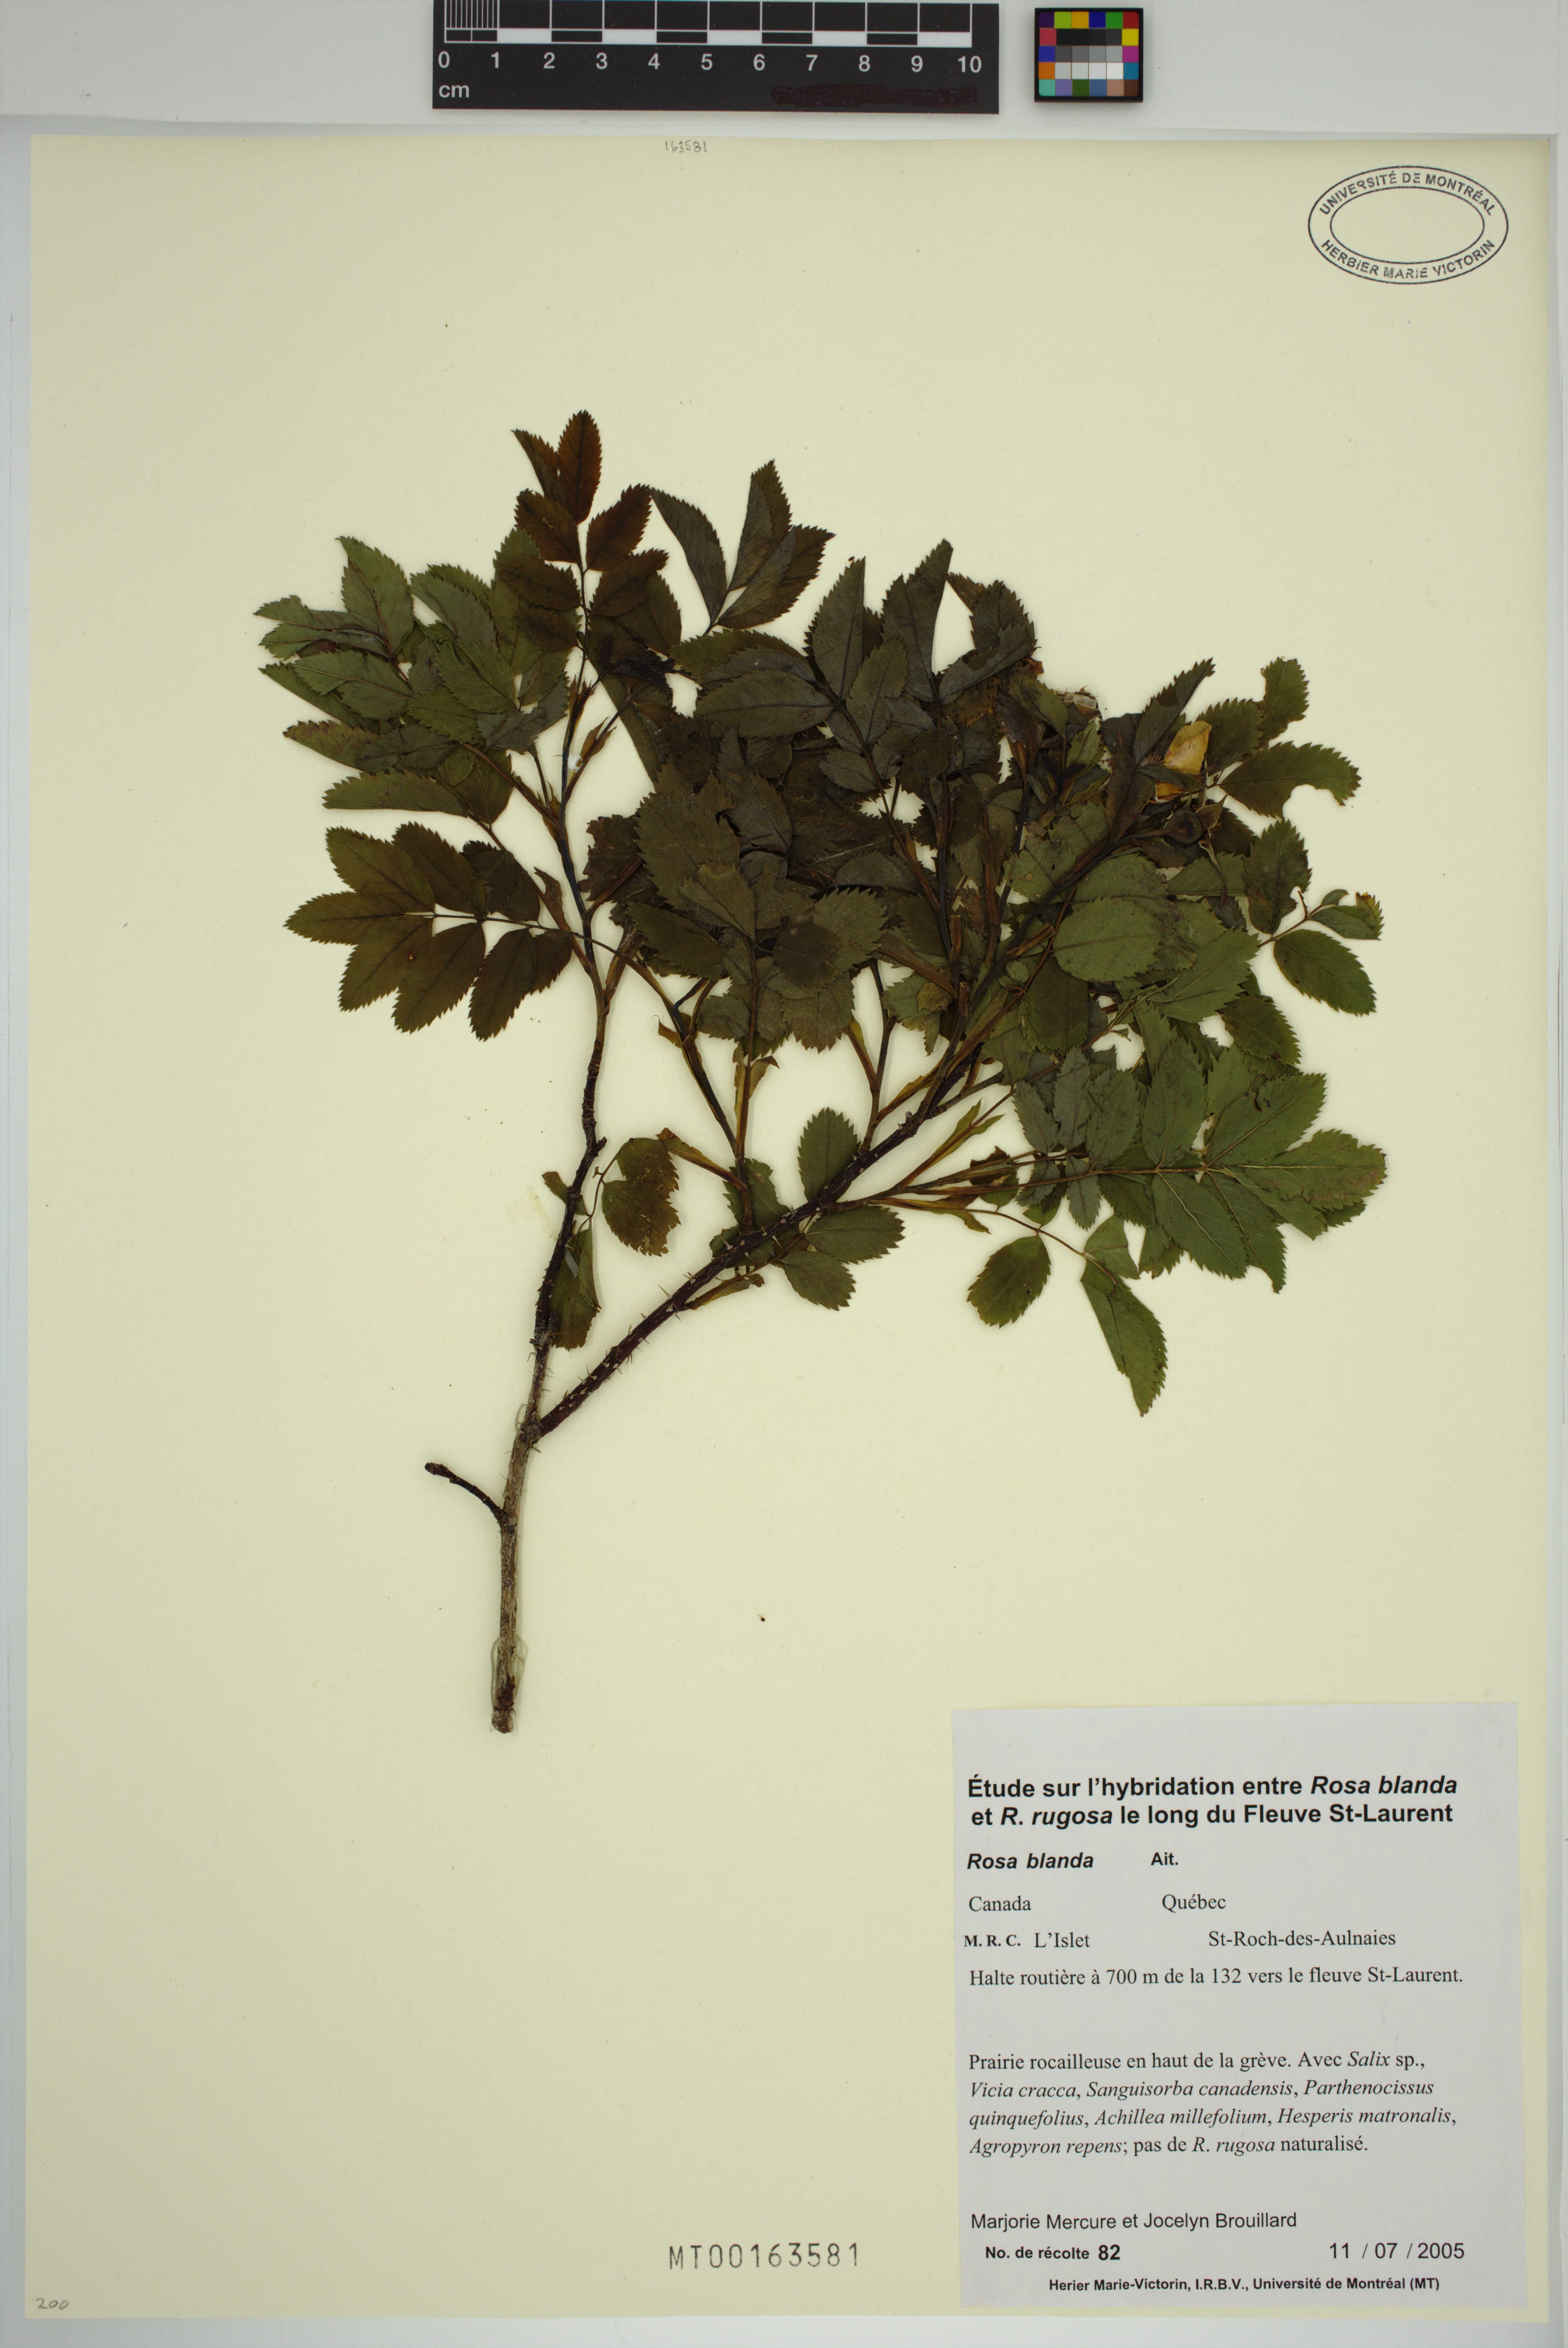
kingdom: Plantae
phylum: Tracheophyta
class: Magnoliopsida
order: Rosales
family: Rosaceae
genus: Rosa
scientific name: Rosa blanda
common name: Smooth rose
